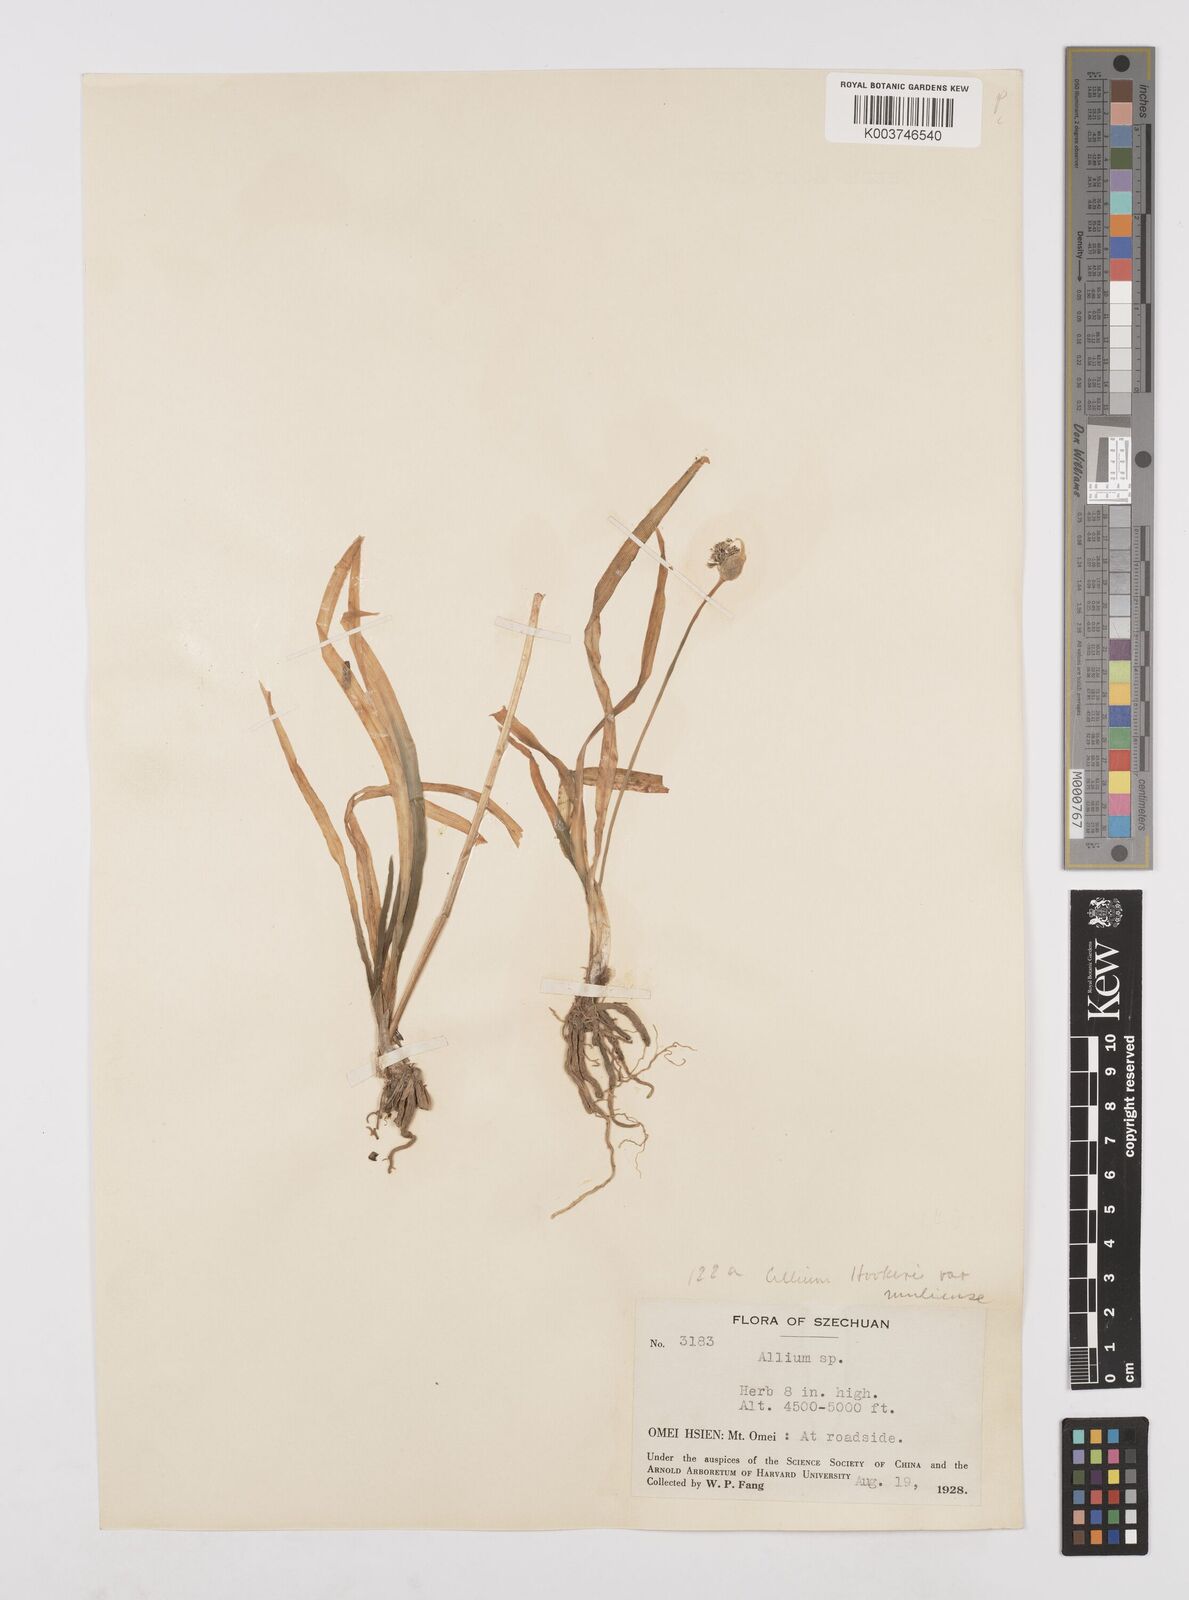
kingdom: Plantae
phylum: Tracheophyta
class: Liliopsida
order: Asparagales
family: Amaryllidaceae
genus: Allium
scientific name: Allium hookeri
